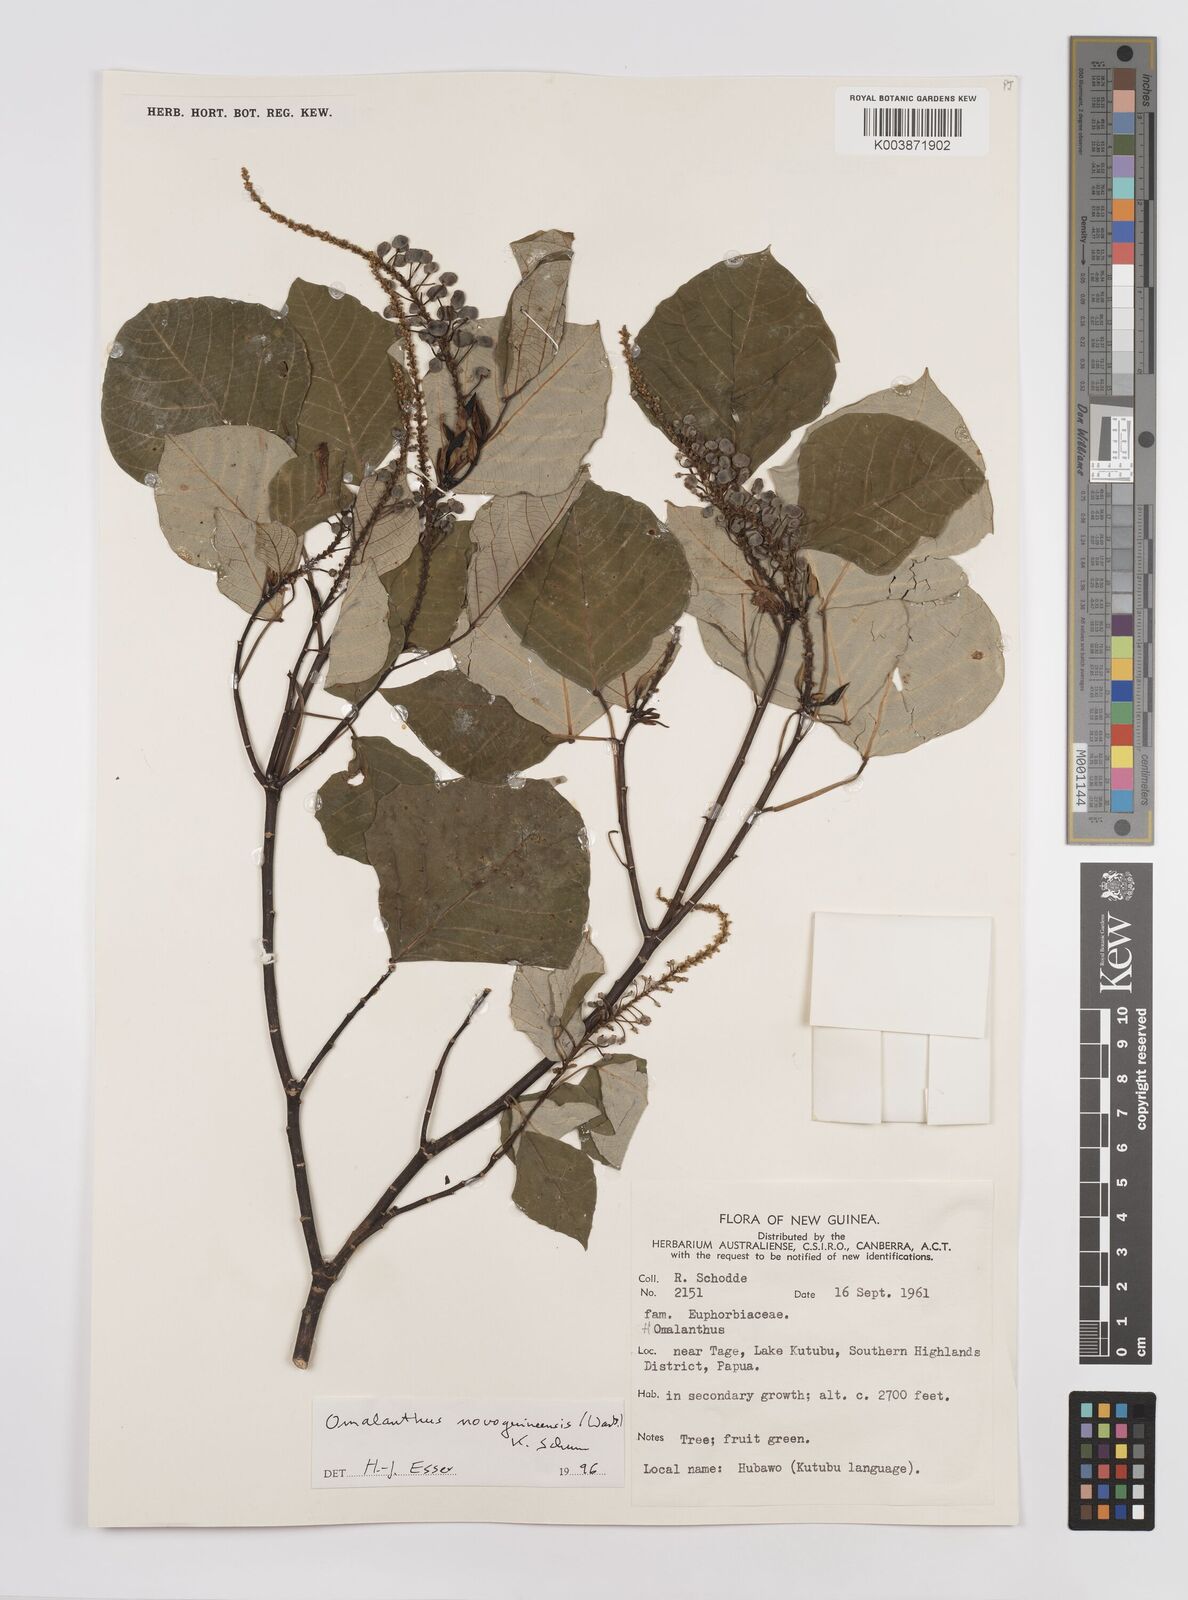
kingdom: Plantae
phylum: Tracheophyta
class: Magnoliopsida
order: Malpighiales
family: Euphorbiaceae
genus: Homalanthus
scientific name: Homalanthus novoguineensis
